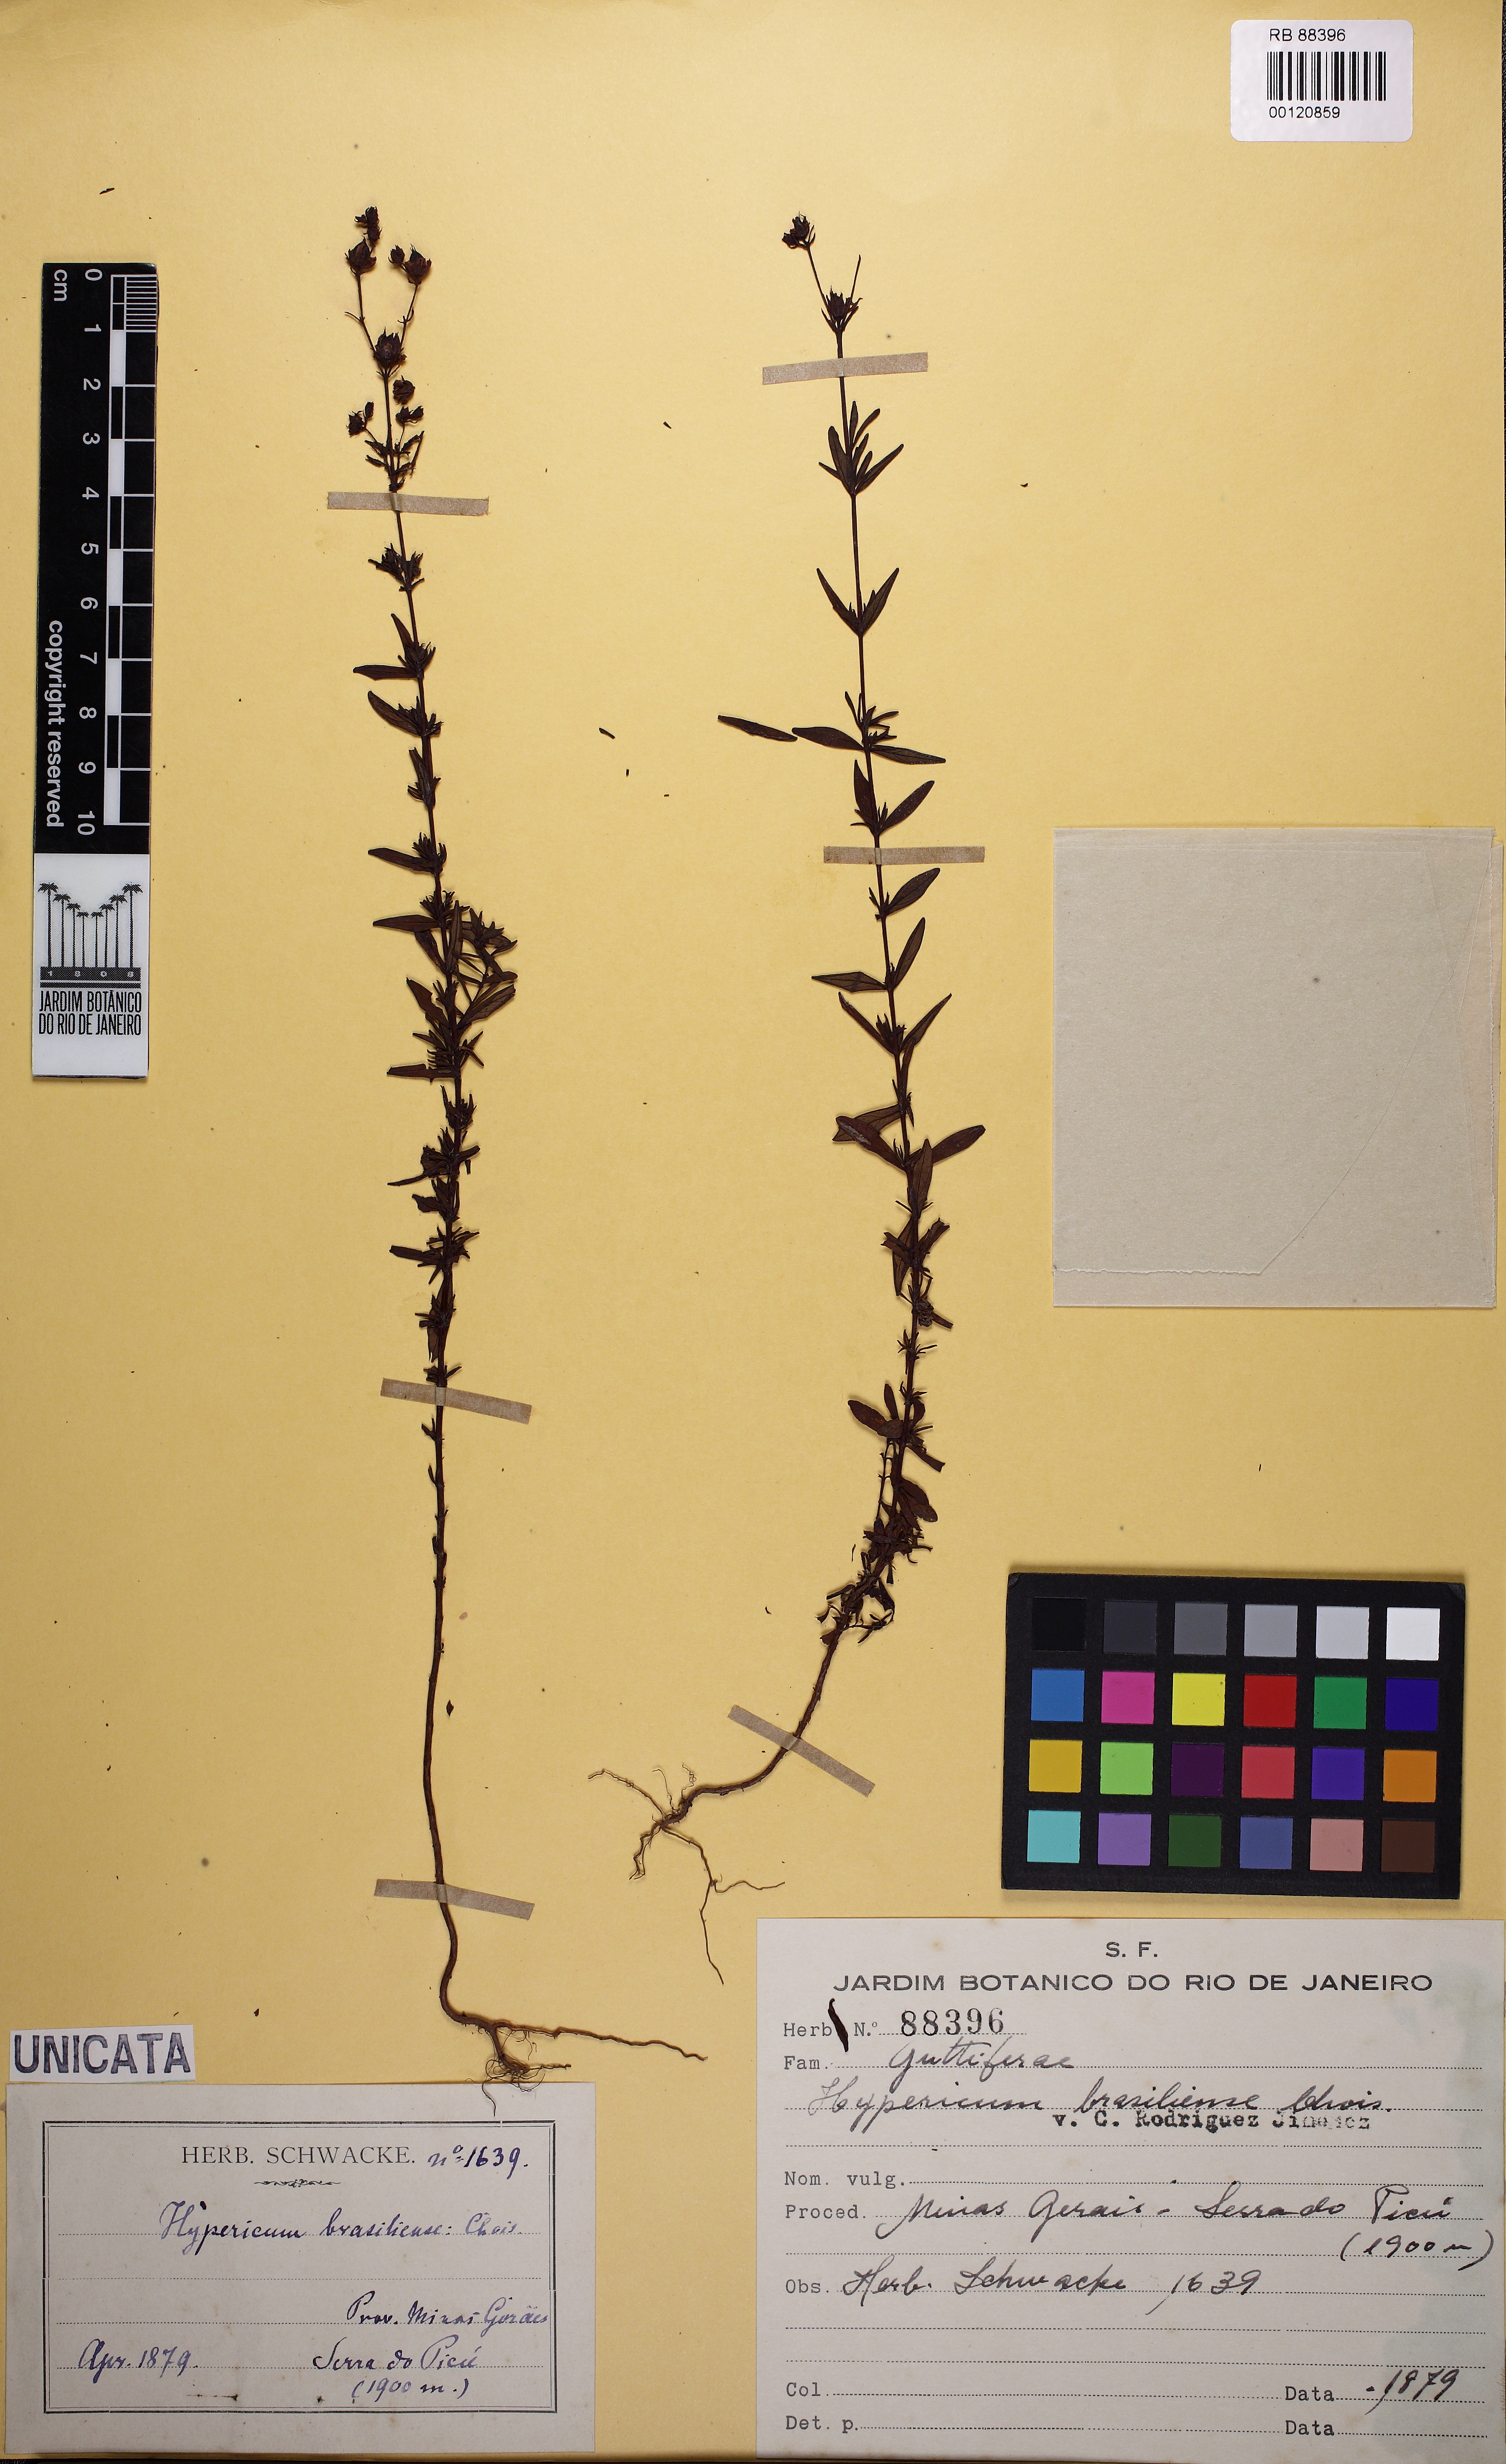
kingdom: Plantae
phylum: Tracheophyta
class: Magnoliopsida
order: Malpighiales
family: Hypericaceae
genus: Hypericum
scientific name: Hypericum brasiliense
